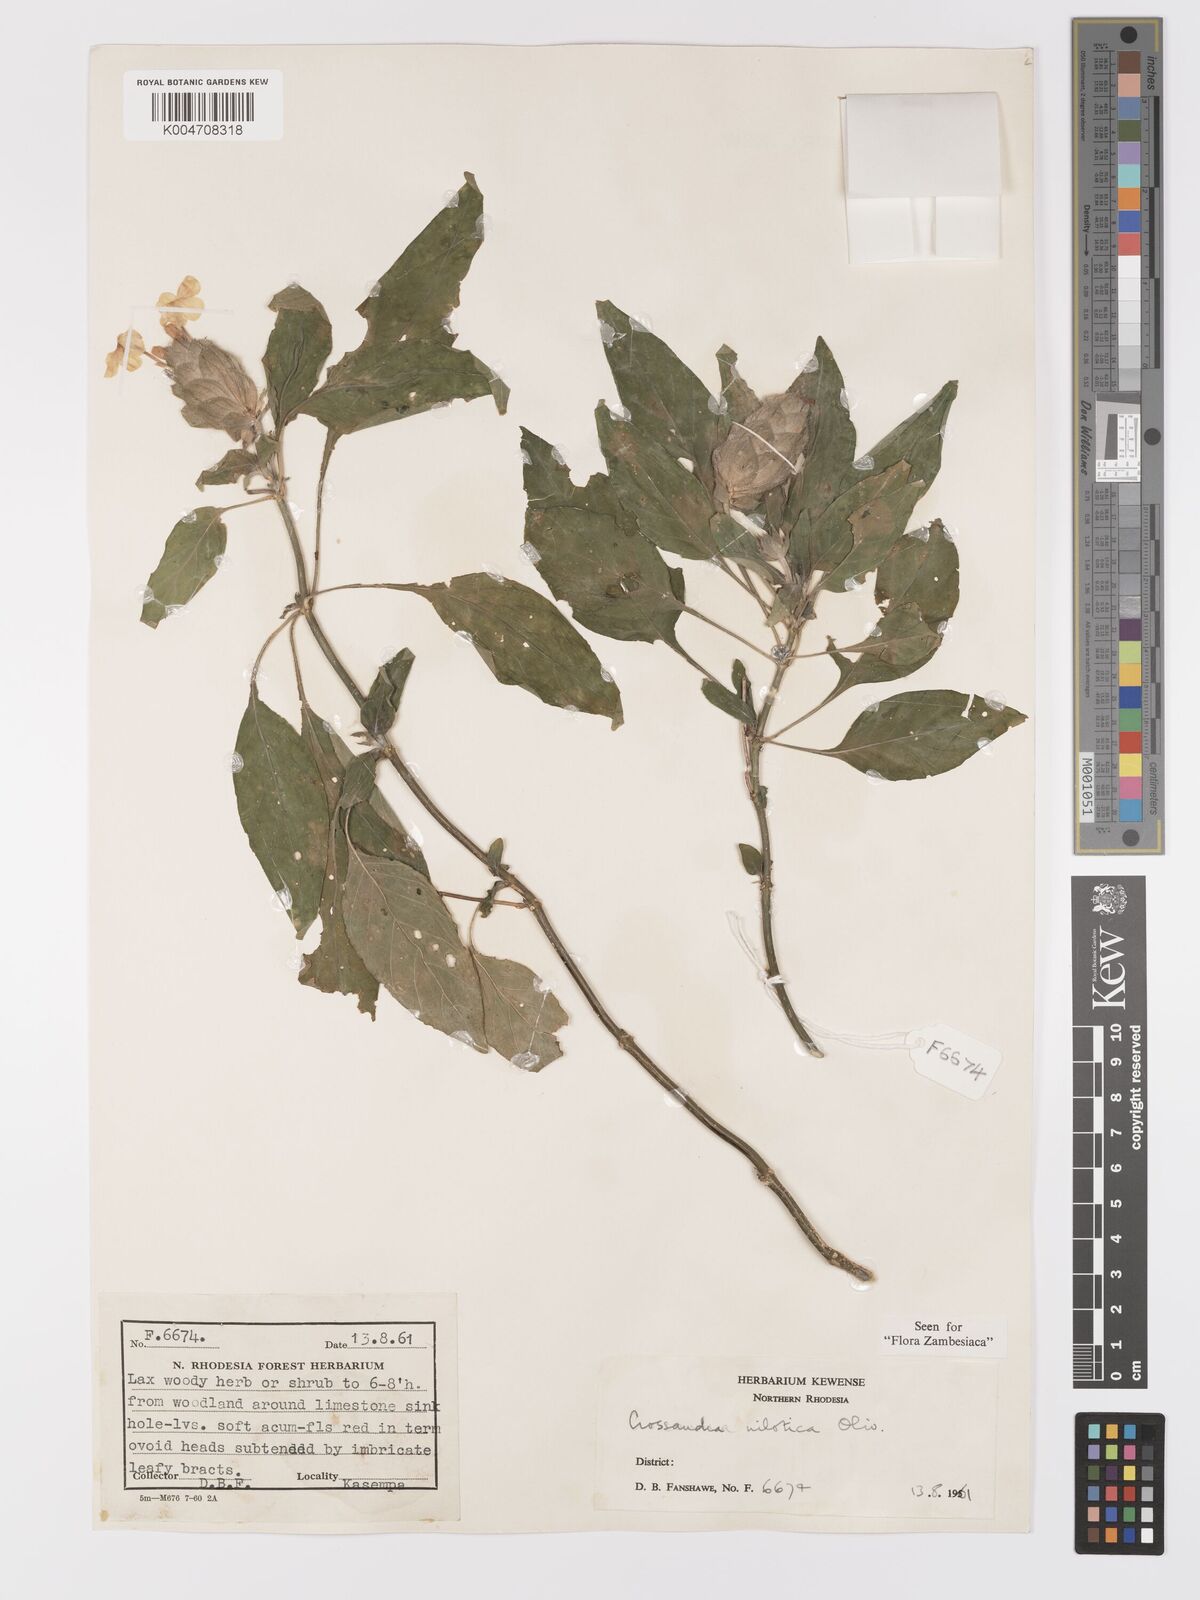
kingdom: Plantae
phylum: Tracheophyta
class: Magnoliopsida
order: Lamiales
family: Acanthaceae
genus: Crossandra
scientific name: Crossandra nilotica
